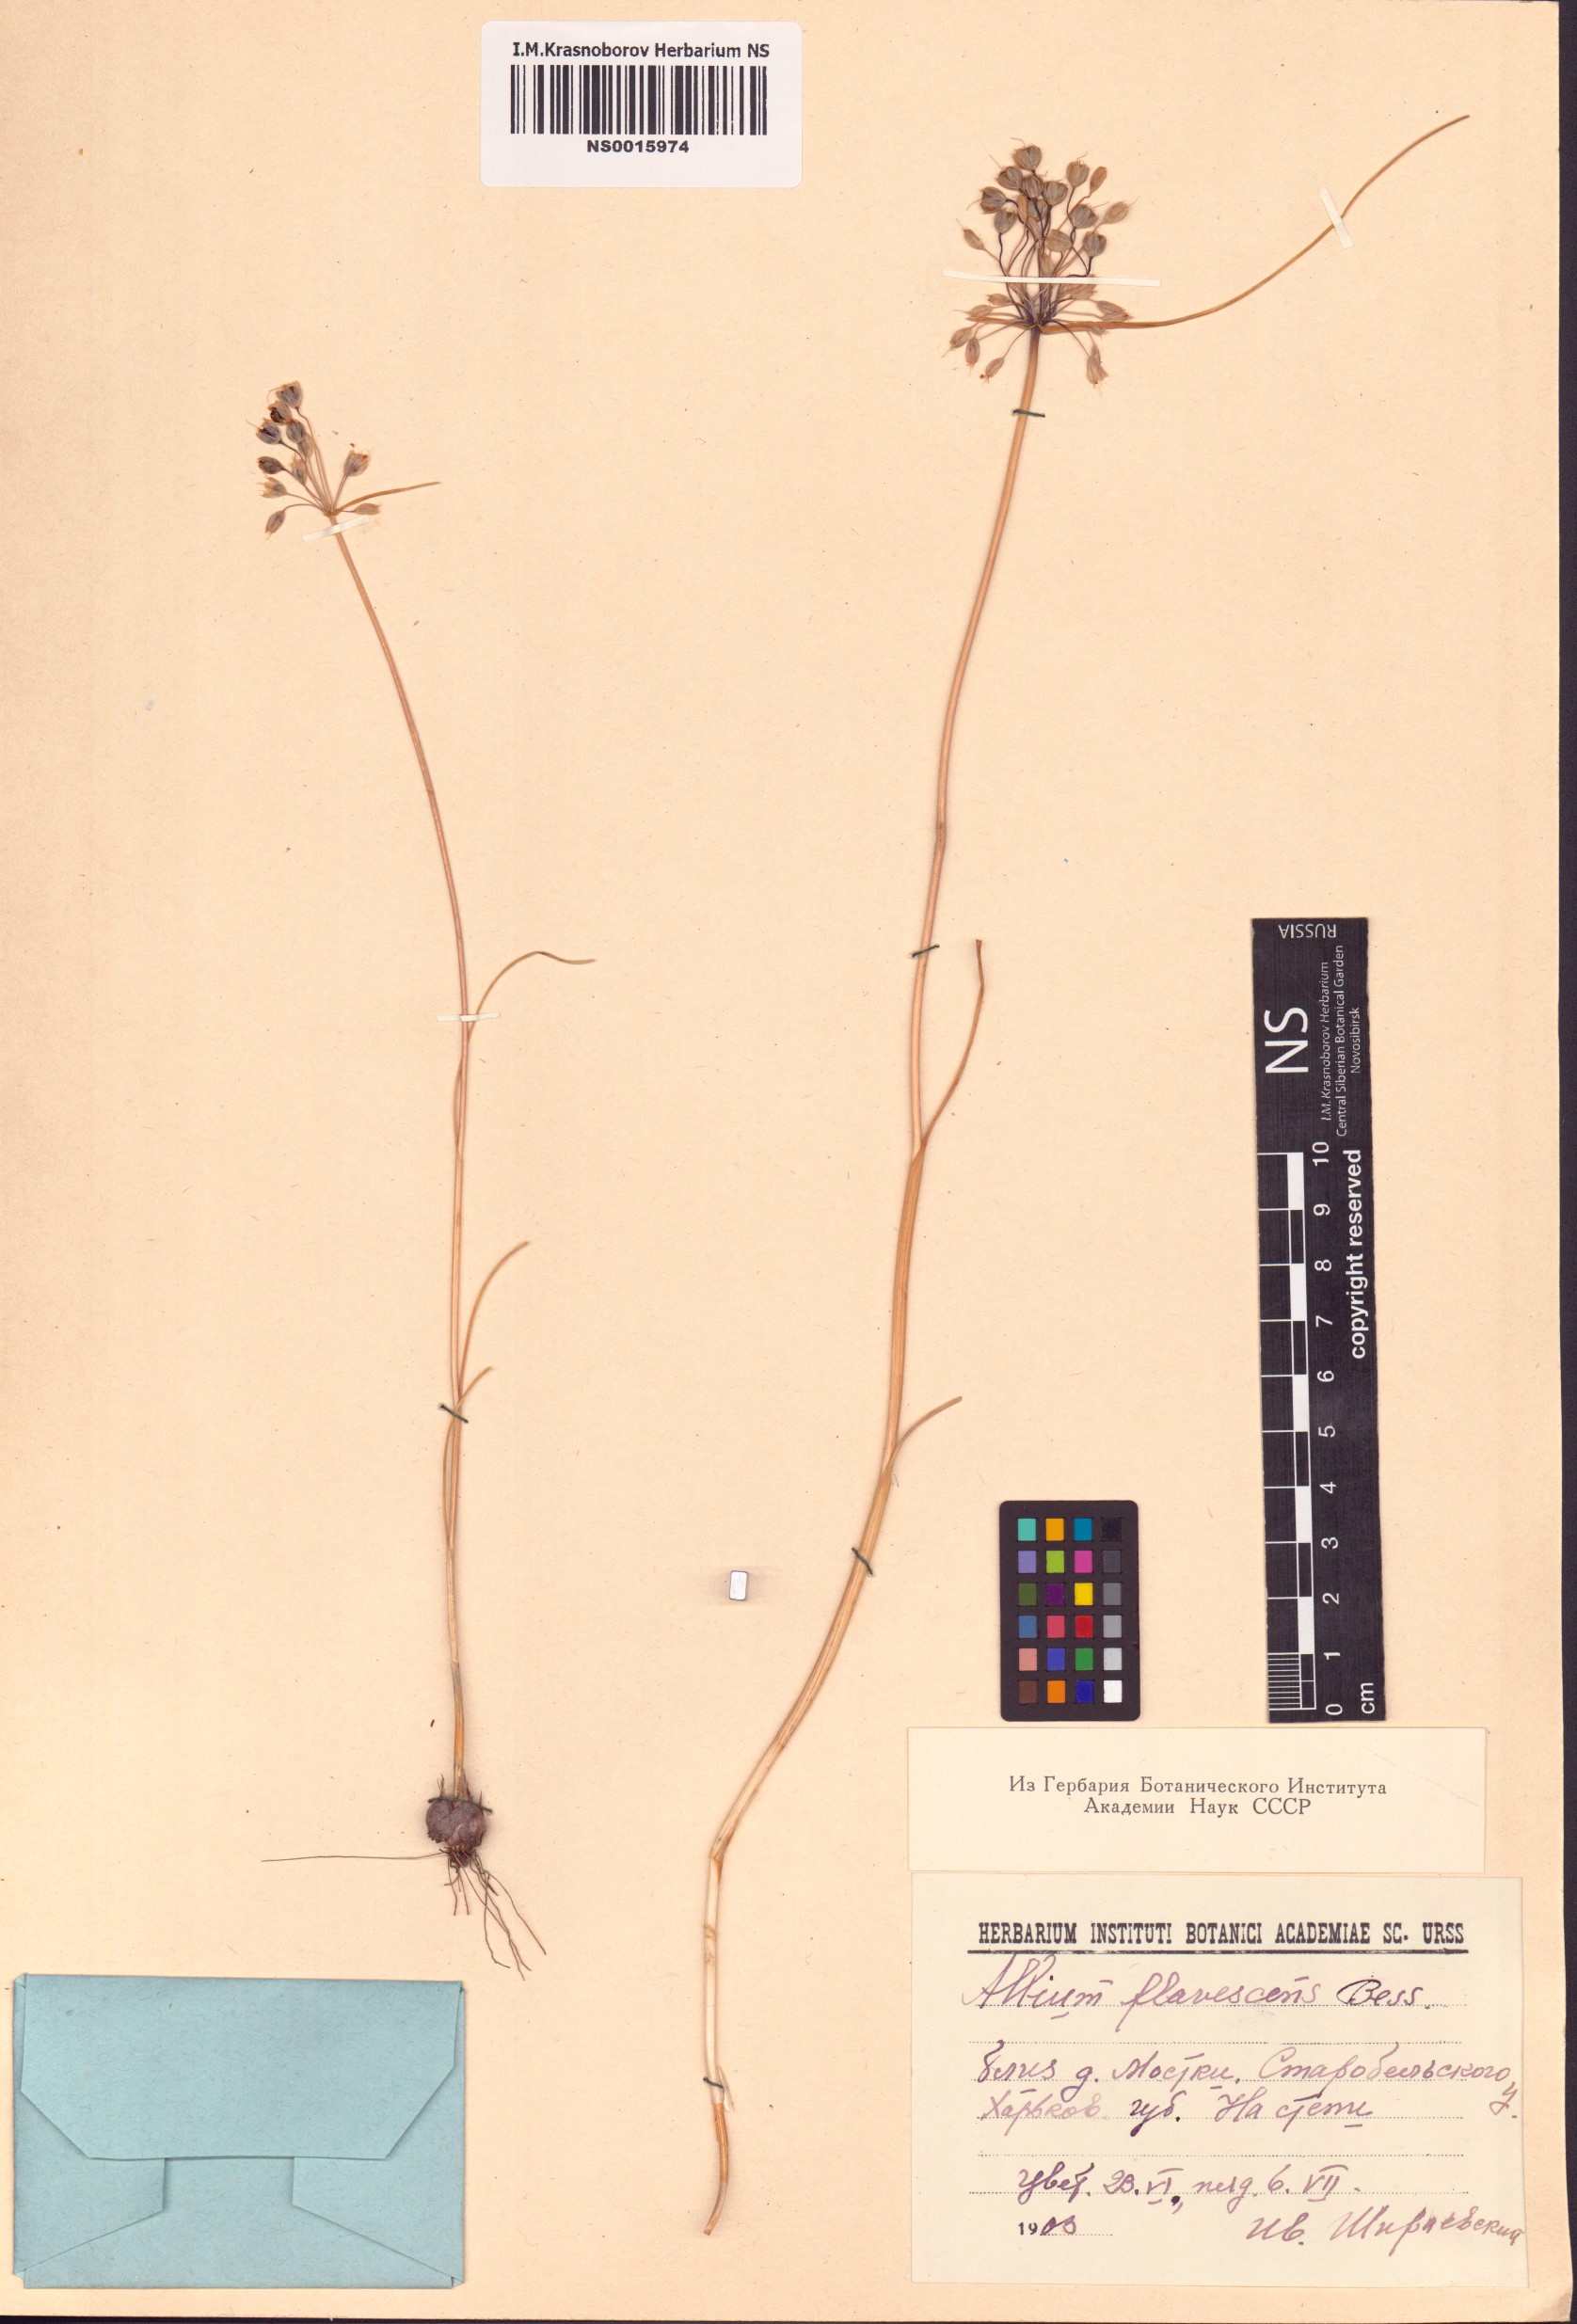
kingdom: Plantae
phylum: Tracheophyta
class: Liliopsida
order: Asparagales
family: Amaryllidaceae
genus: Allium
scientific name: Allium flavescens
